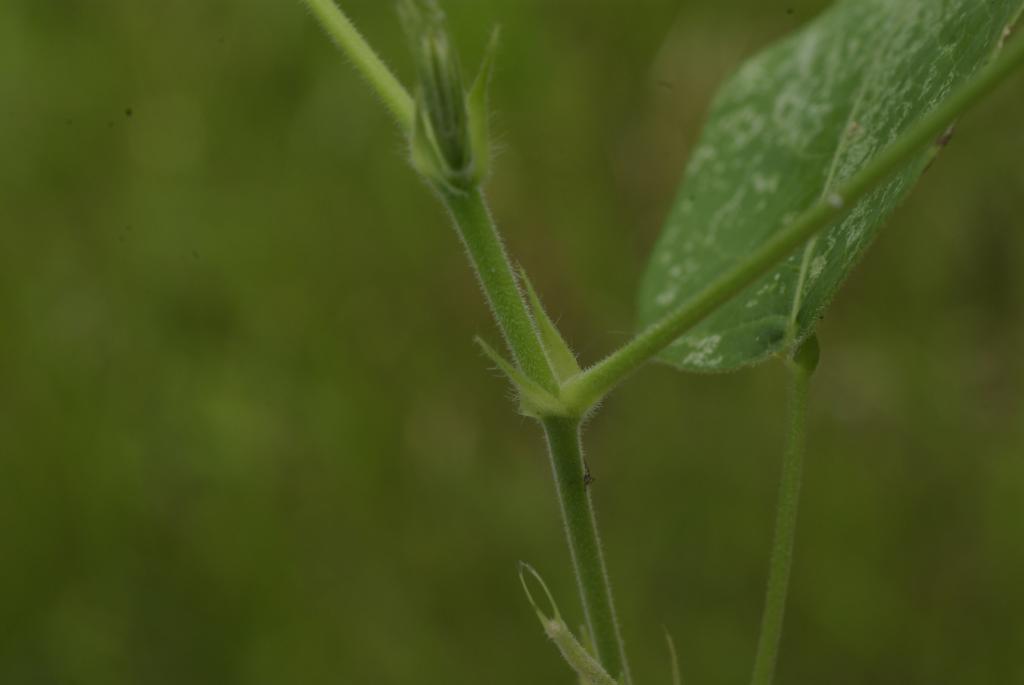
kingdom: Plantae
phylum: Tracheophyta
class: Magnoliopsida
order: Fabales
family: Fabaceae
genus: Uraria
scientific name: Uraria crinita
